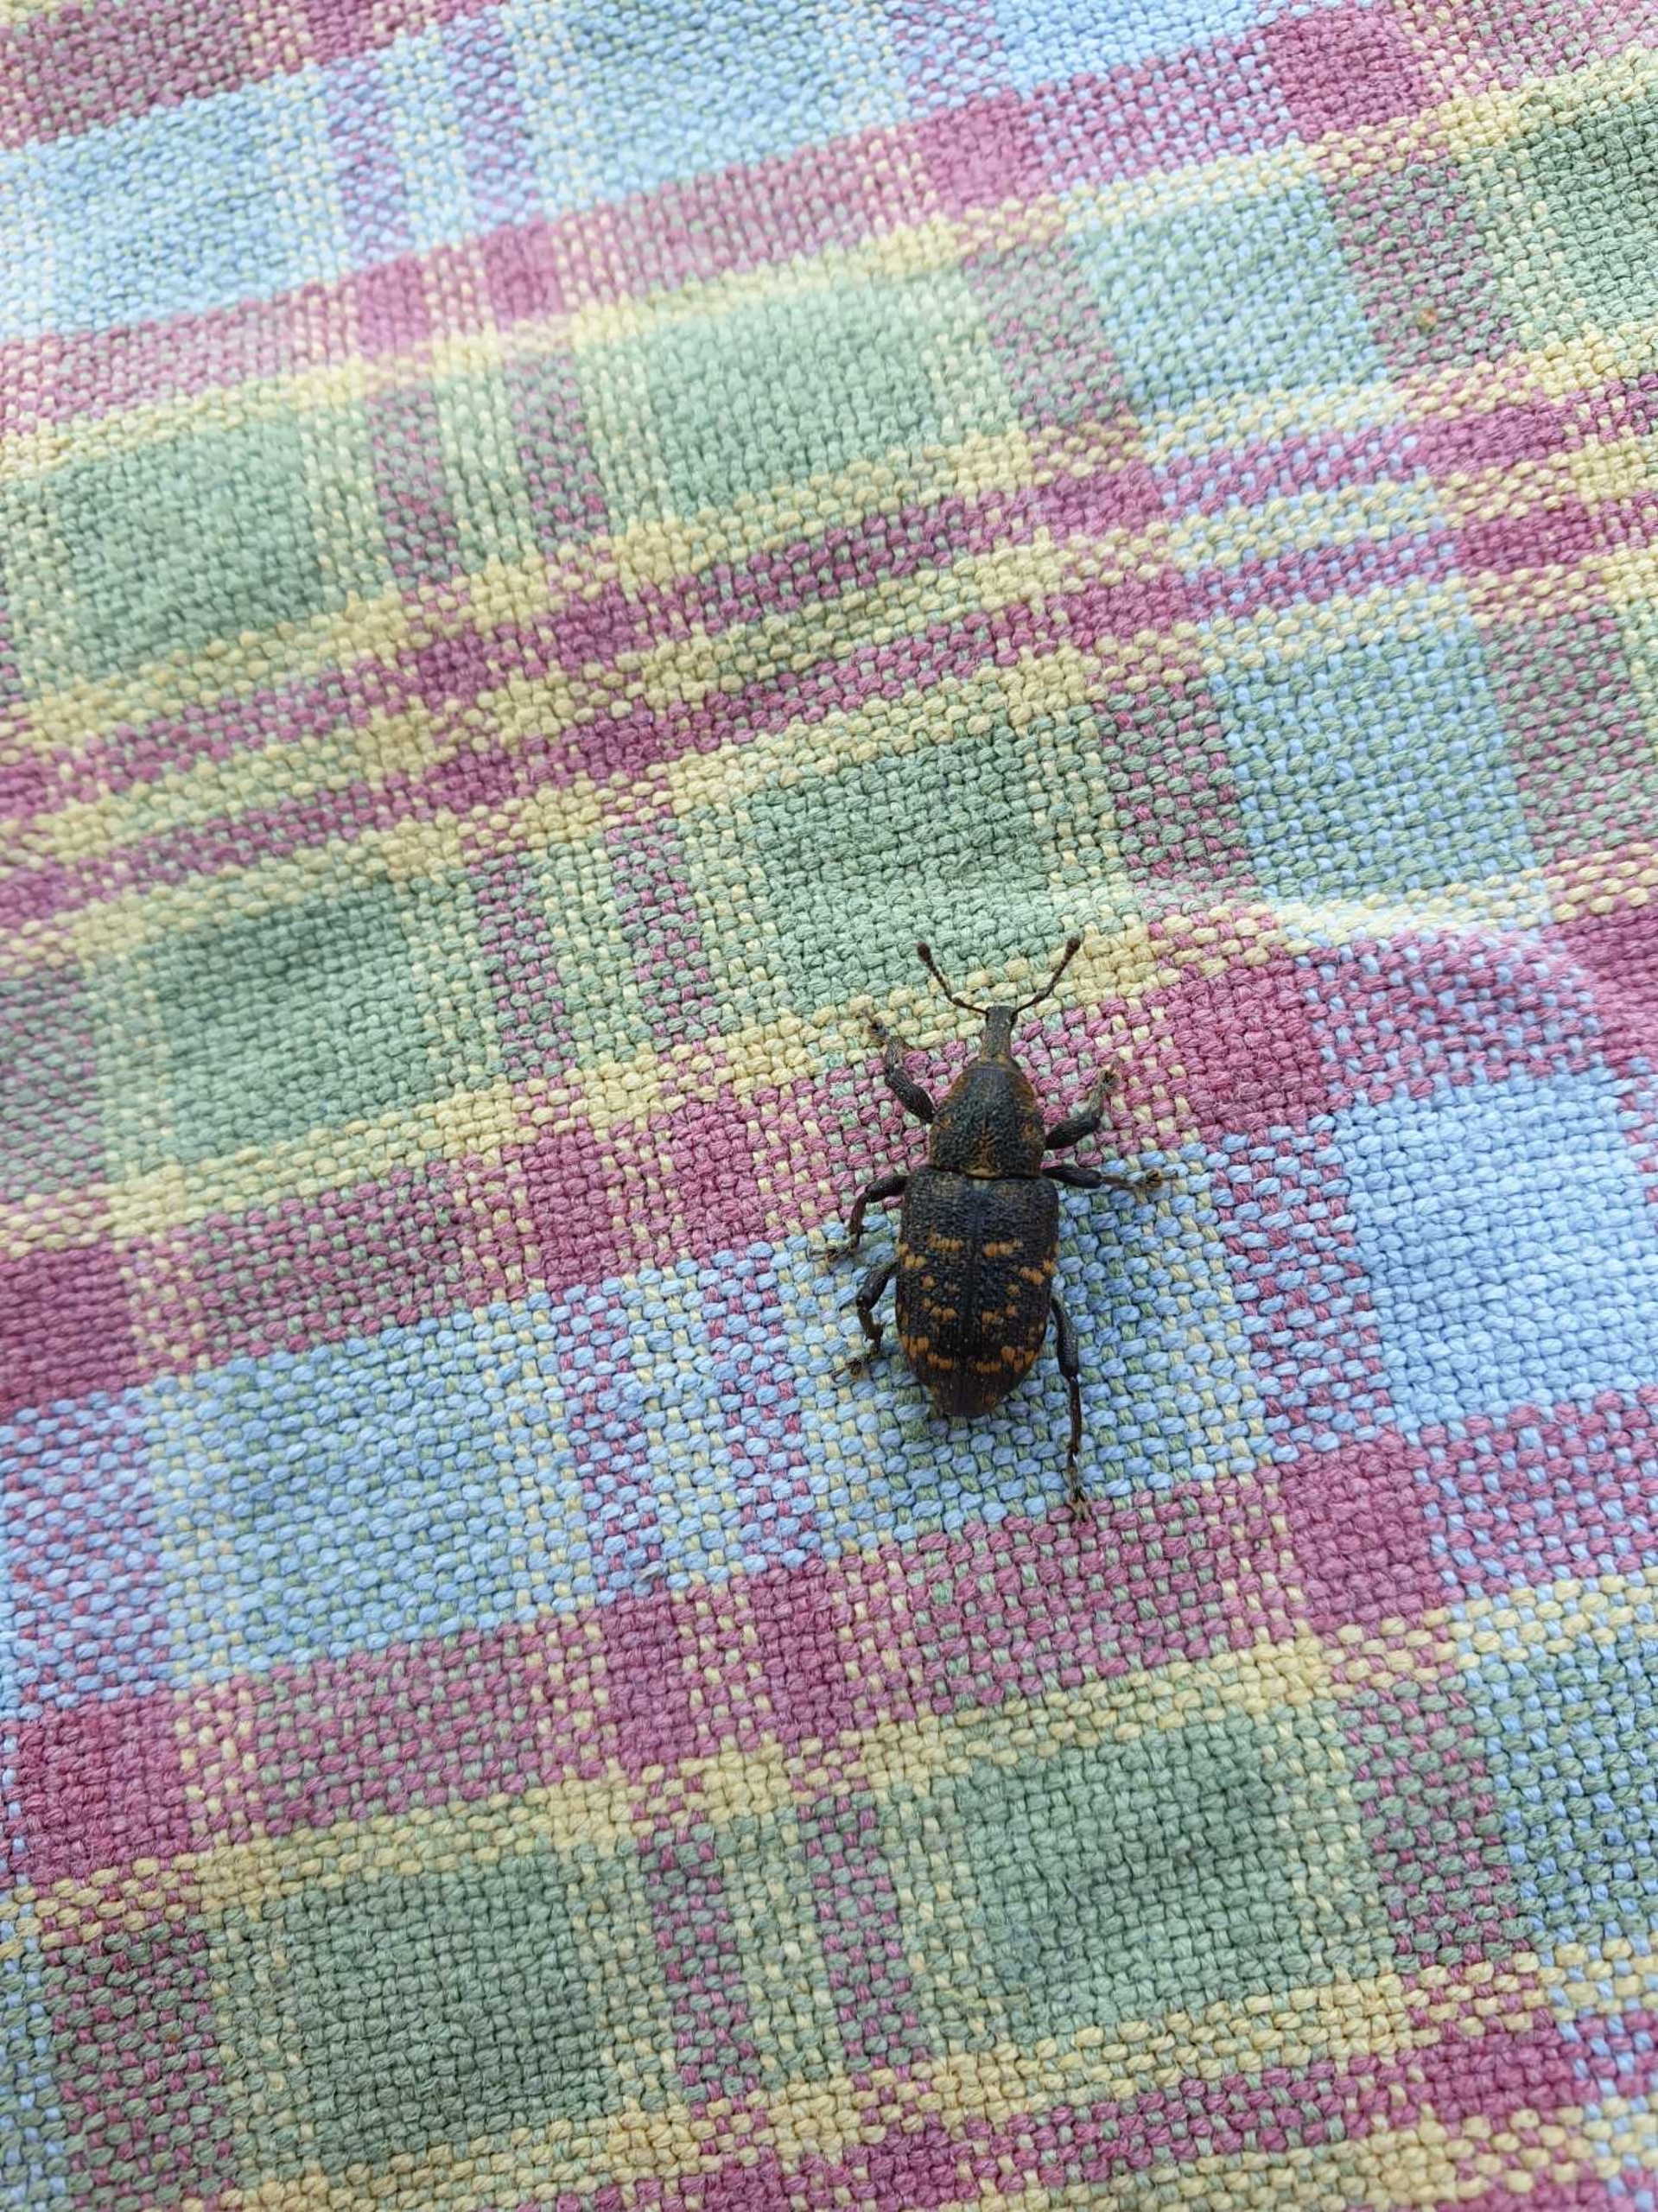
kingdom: Animalia
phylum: Arthropoda
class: Insecta
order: Coleoptera
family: Curculionidae
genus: Hylobius
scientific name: Hylobius abietis
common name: Stor nåletræsnudebille
